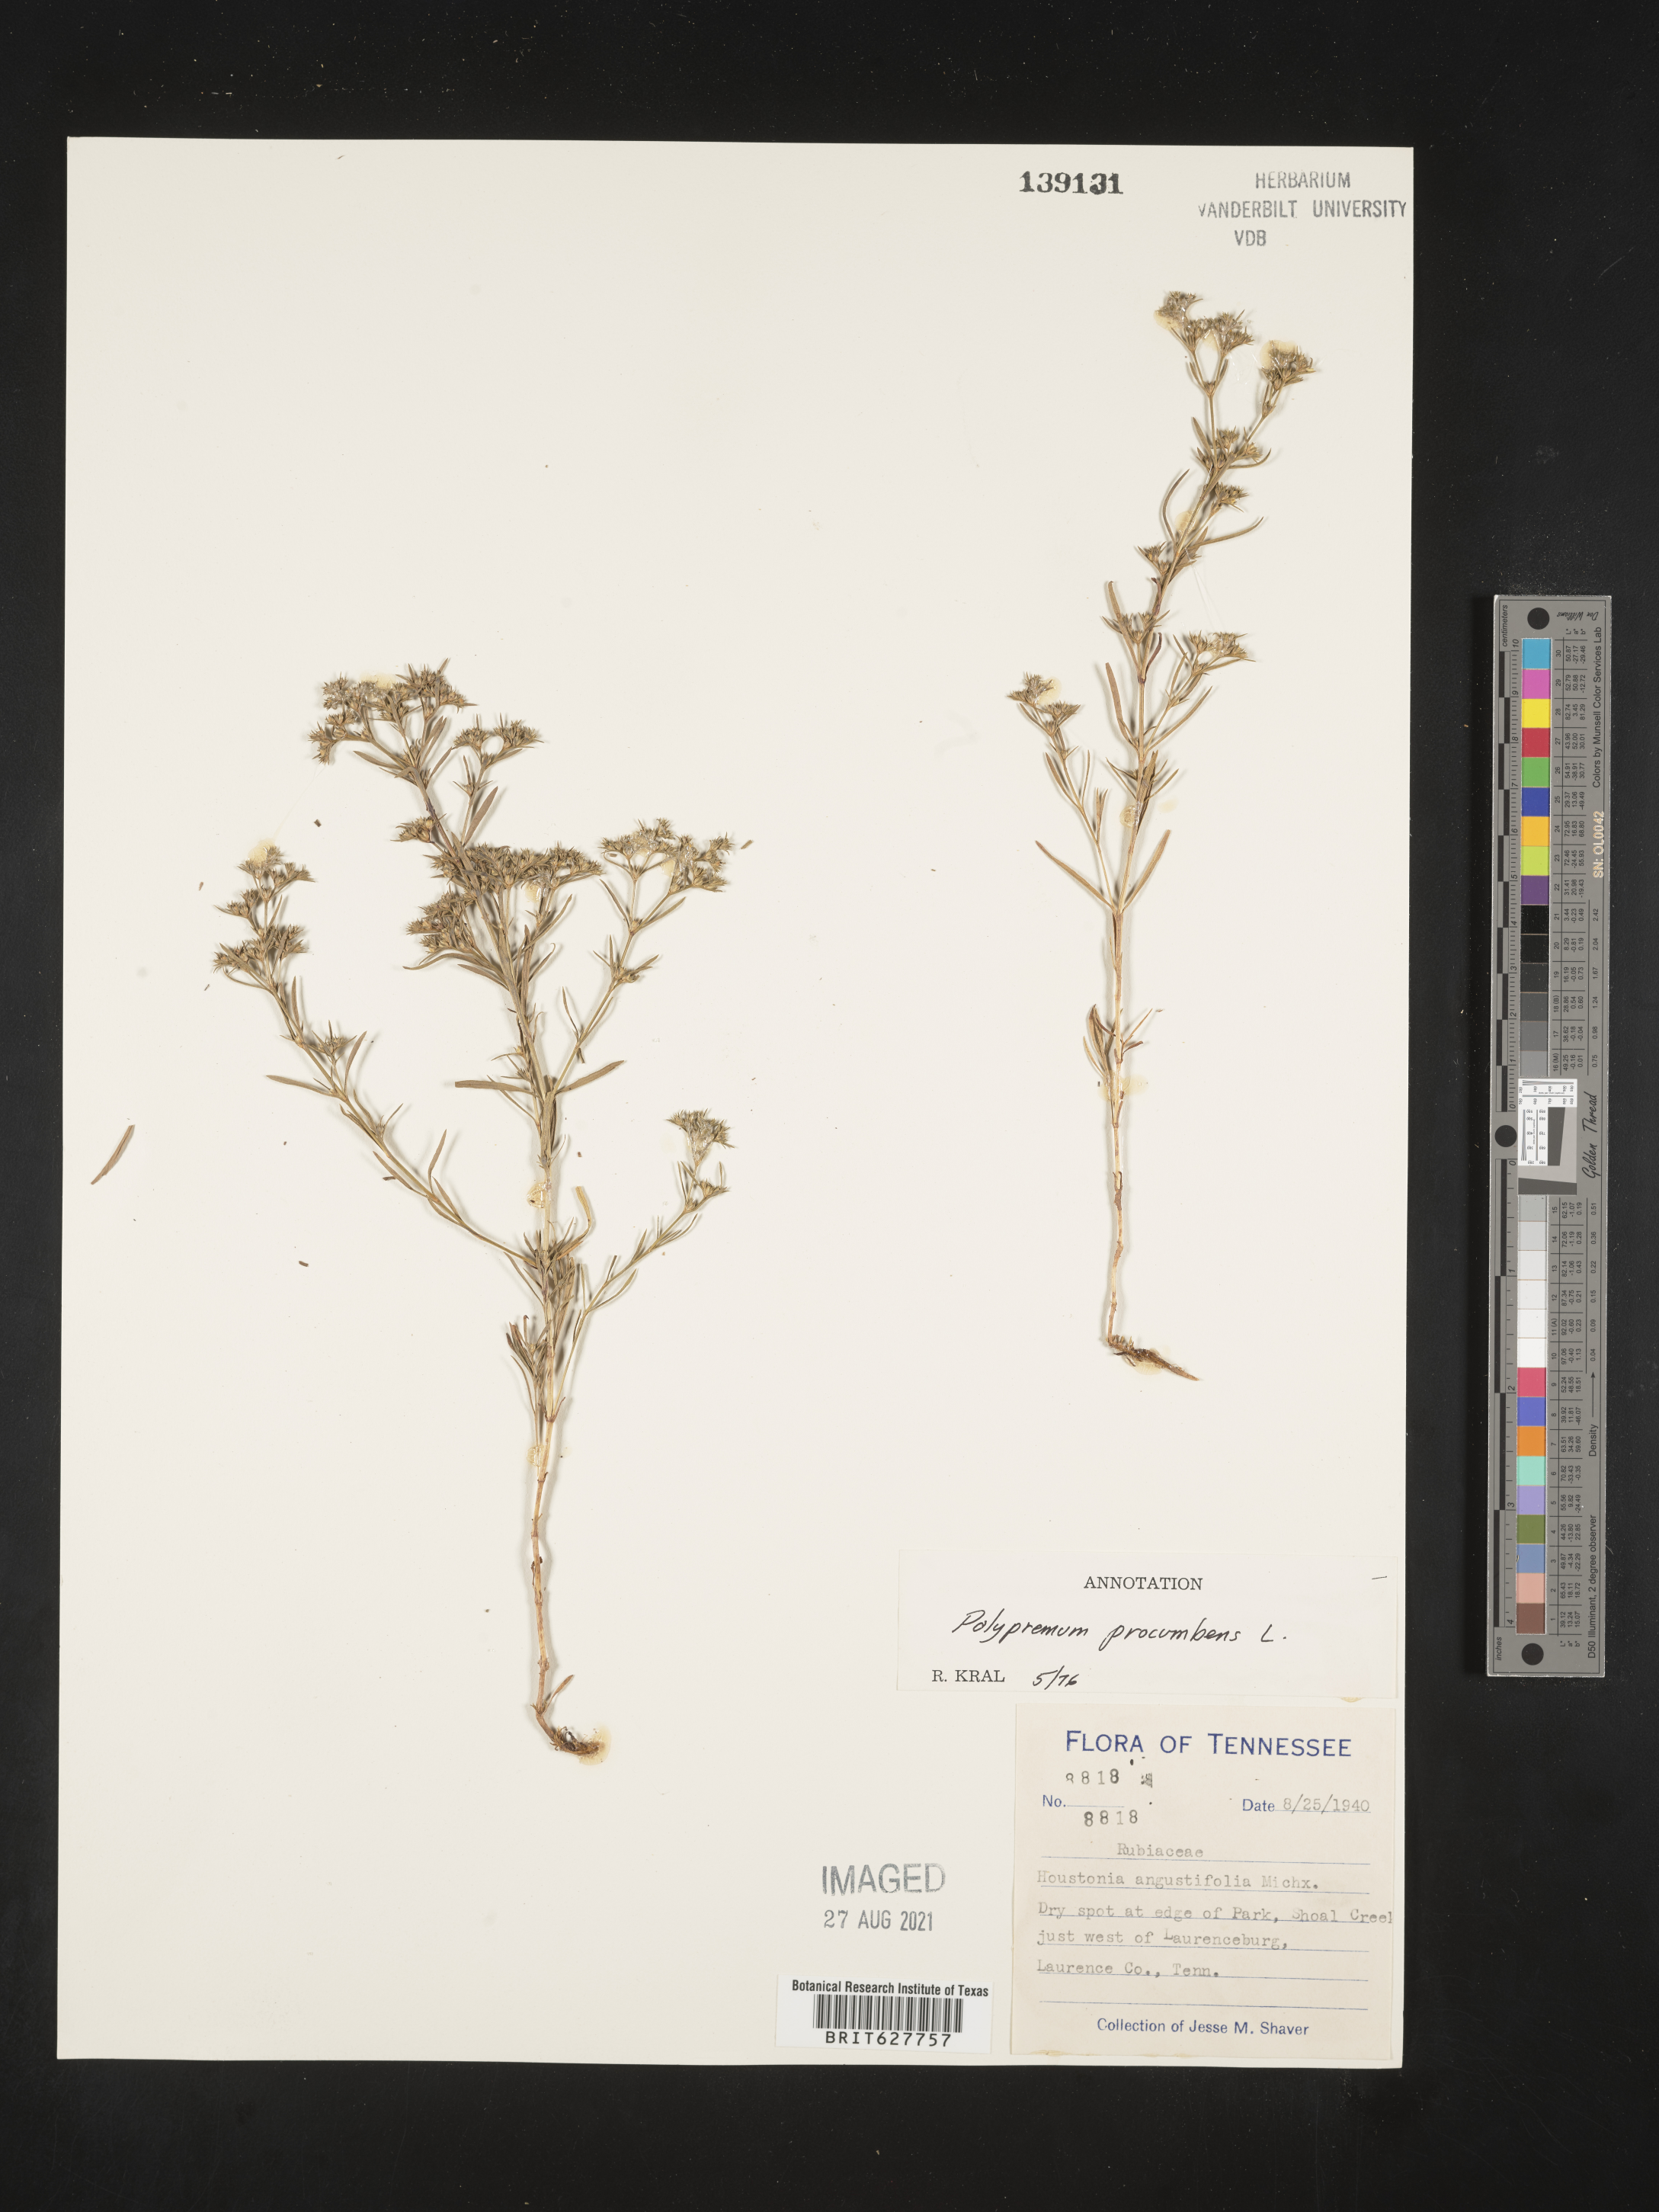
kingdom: Plantae
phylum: Tracheophyta
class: Magnoliopsida
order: Lamiales
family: Tetrachondraceae
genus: Polypremum
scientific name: Polypremum procumbens
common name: Juniper-leaf
